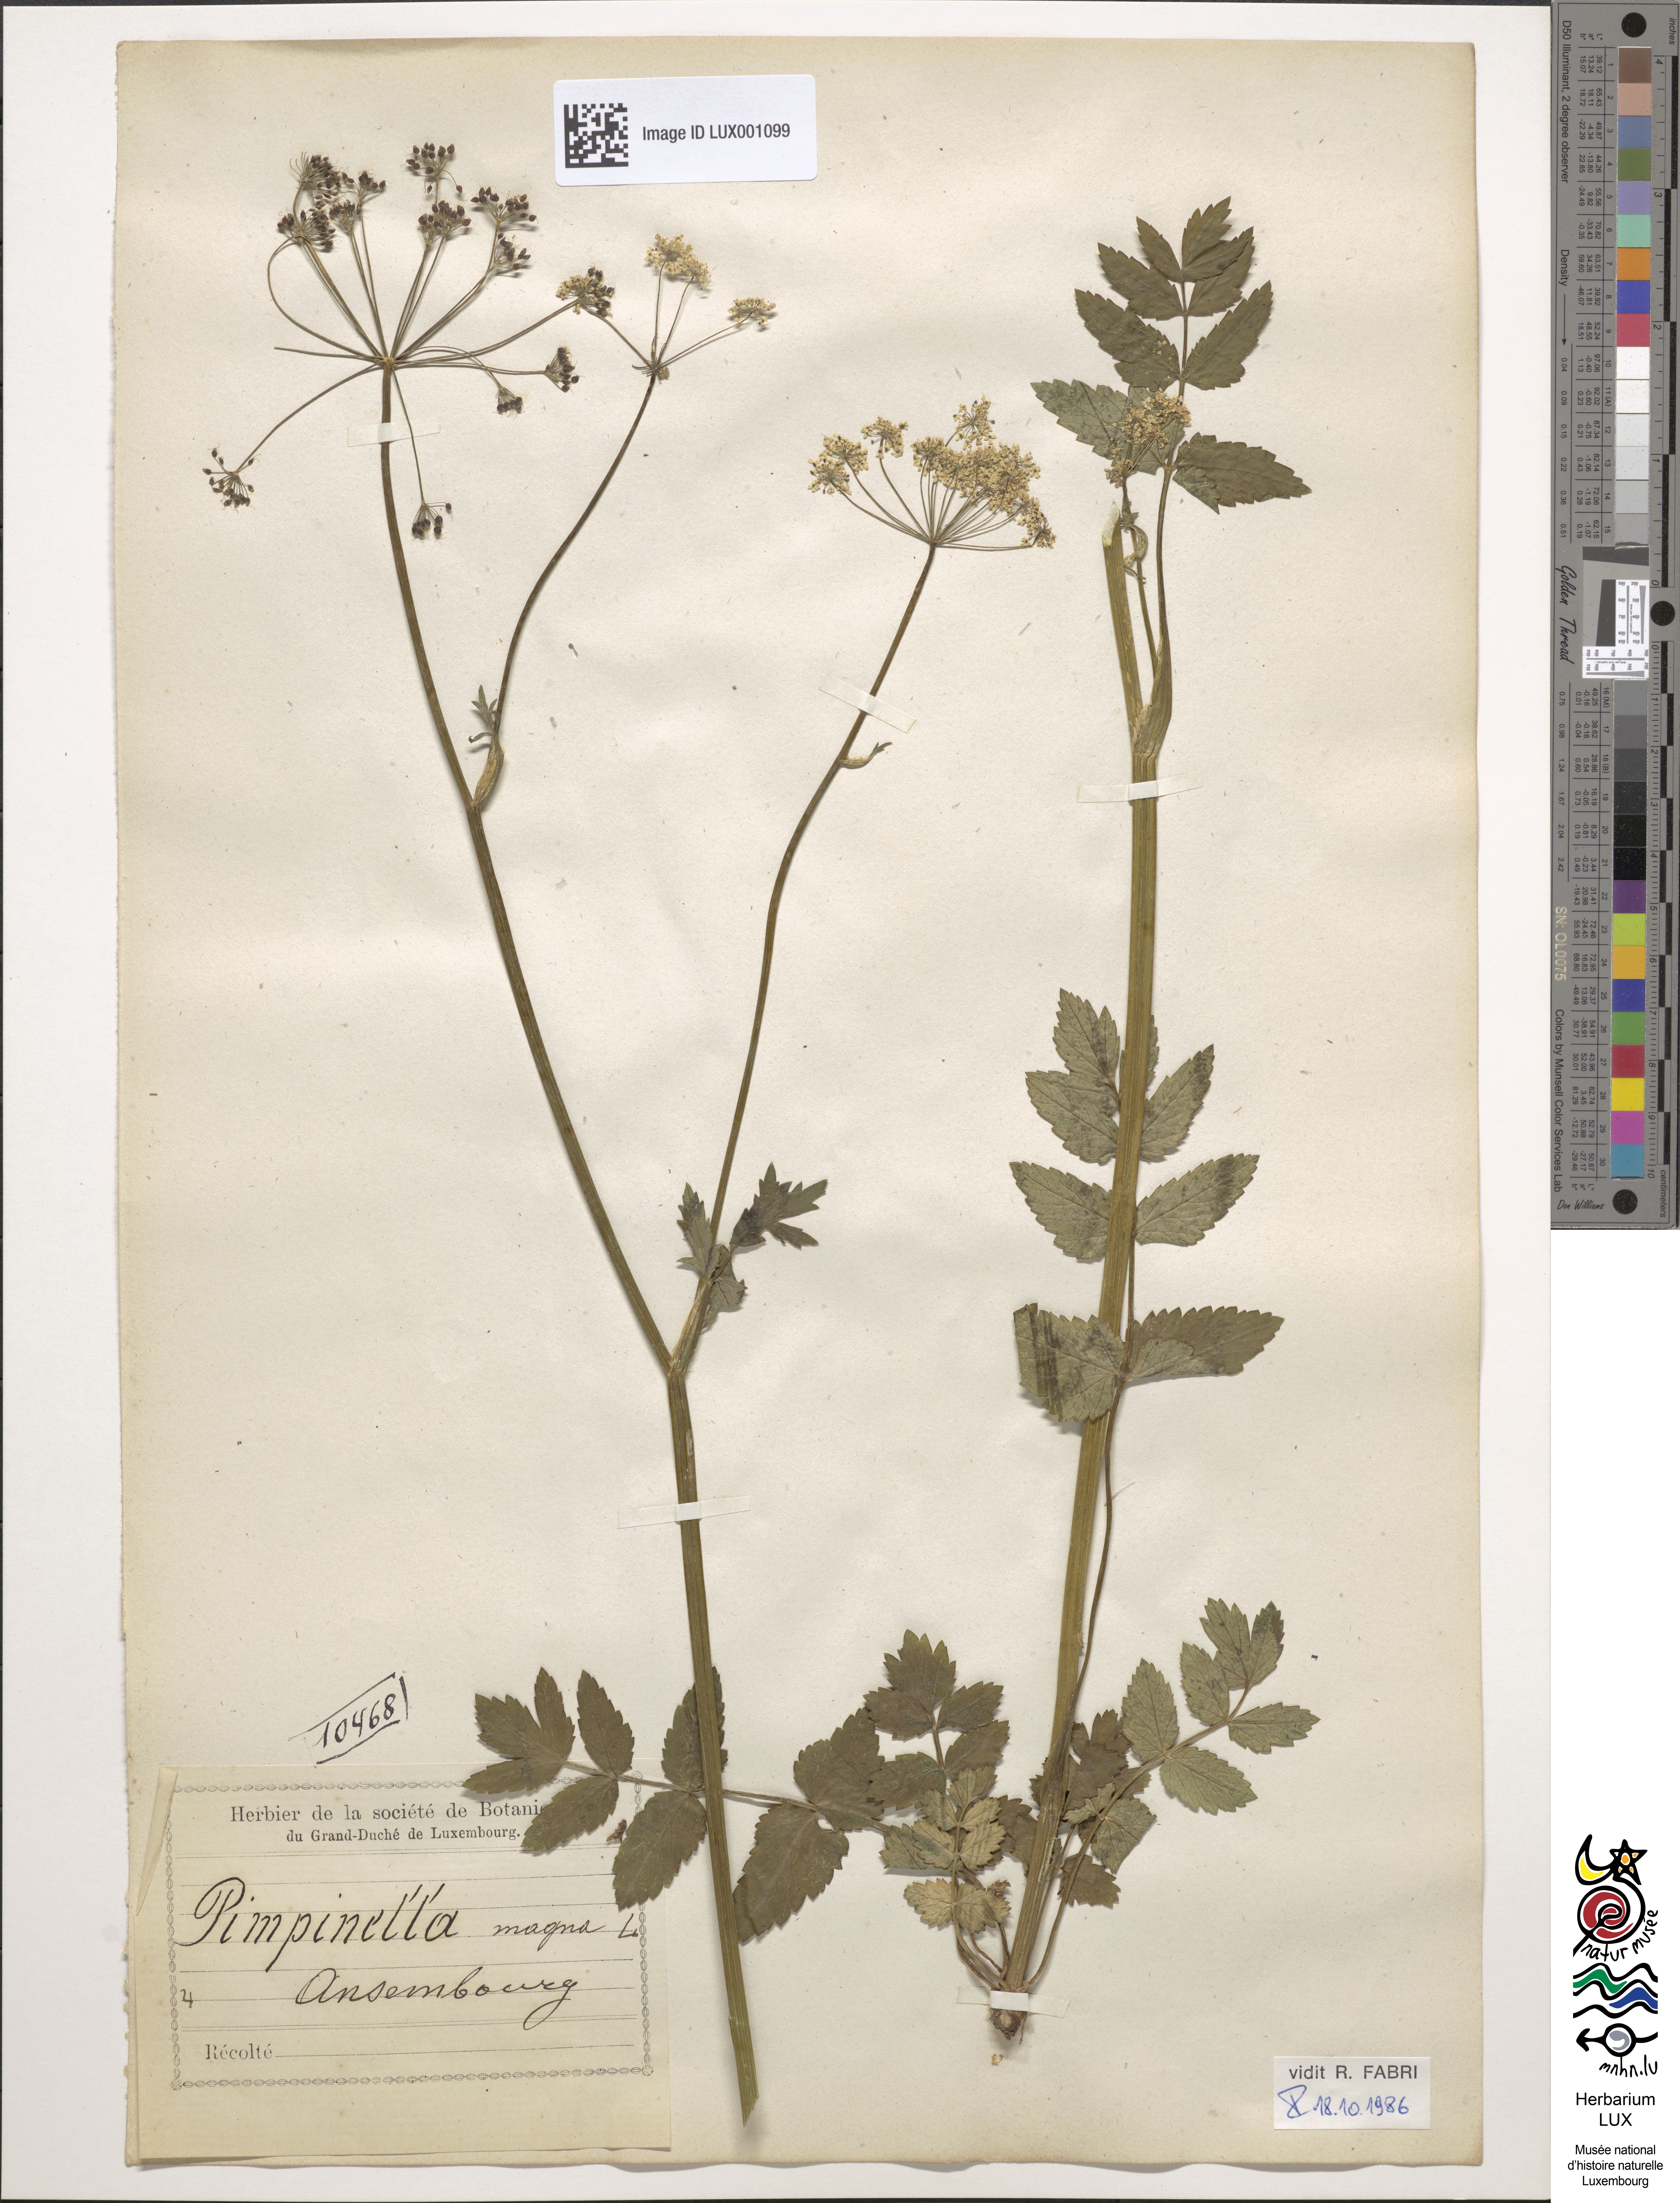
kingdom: Plantae
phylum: Tracheophyta
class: Magnoliopsida
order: Apiales
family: Apiaceae
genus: Pimpinella
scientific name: Pimpinella major
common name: Greater burnet-saxifrage
